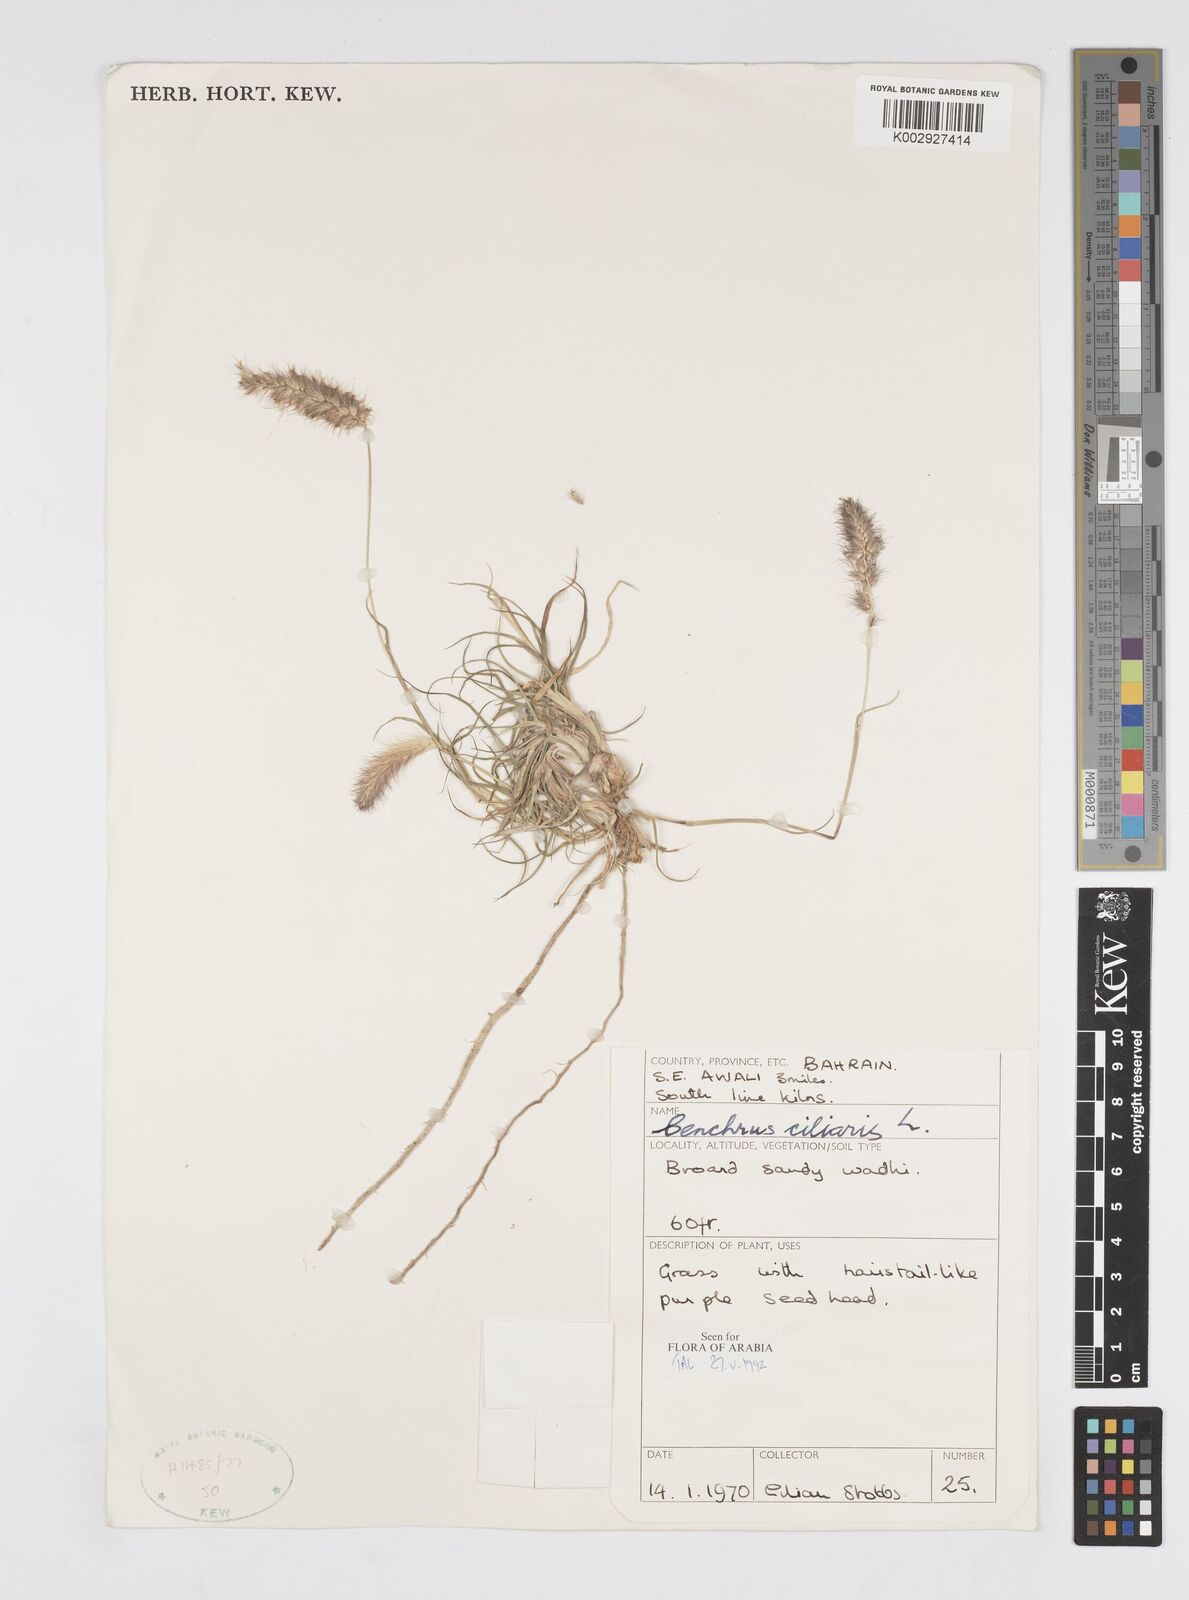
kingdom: Plantae
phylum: Tracheophyta
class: Liliopsida
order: Poales
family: Poaceae
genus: Cenchrus
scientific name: Cenchrus ciliaris
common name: Buffelgrass
